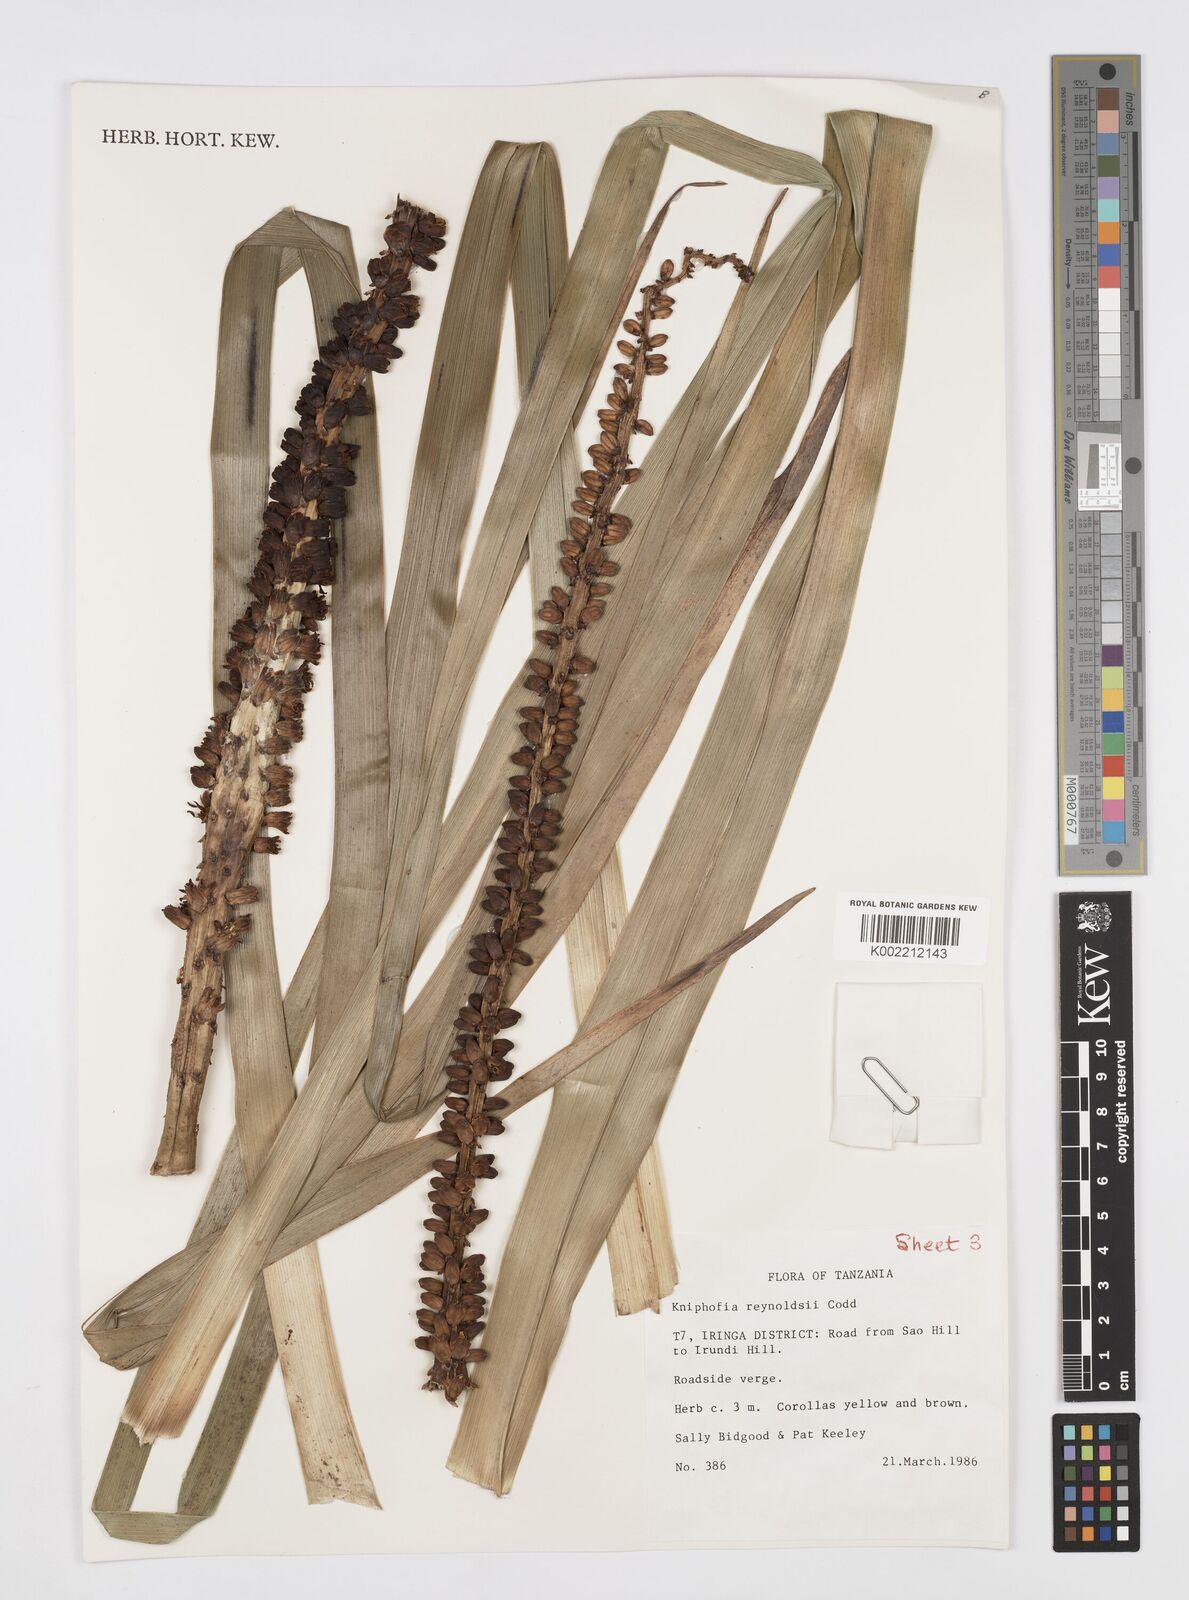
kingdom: Plantae
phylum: Tracheophyta
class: Liliopsida
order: Asparagales
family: Asphodelaceae
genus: Kniphofia
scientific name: Kniphofia reynoldsii
